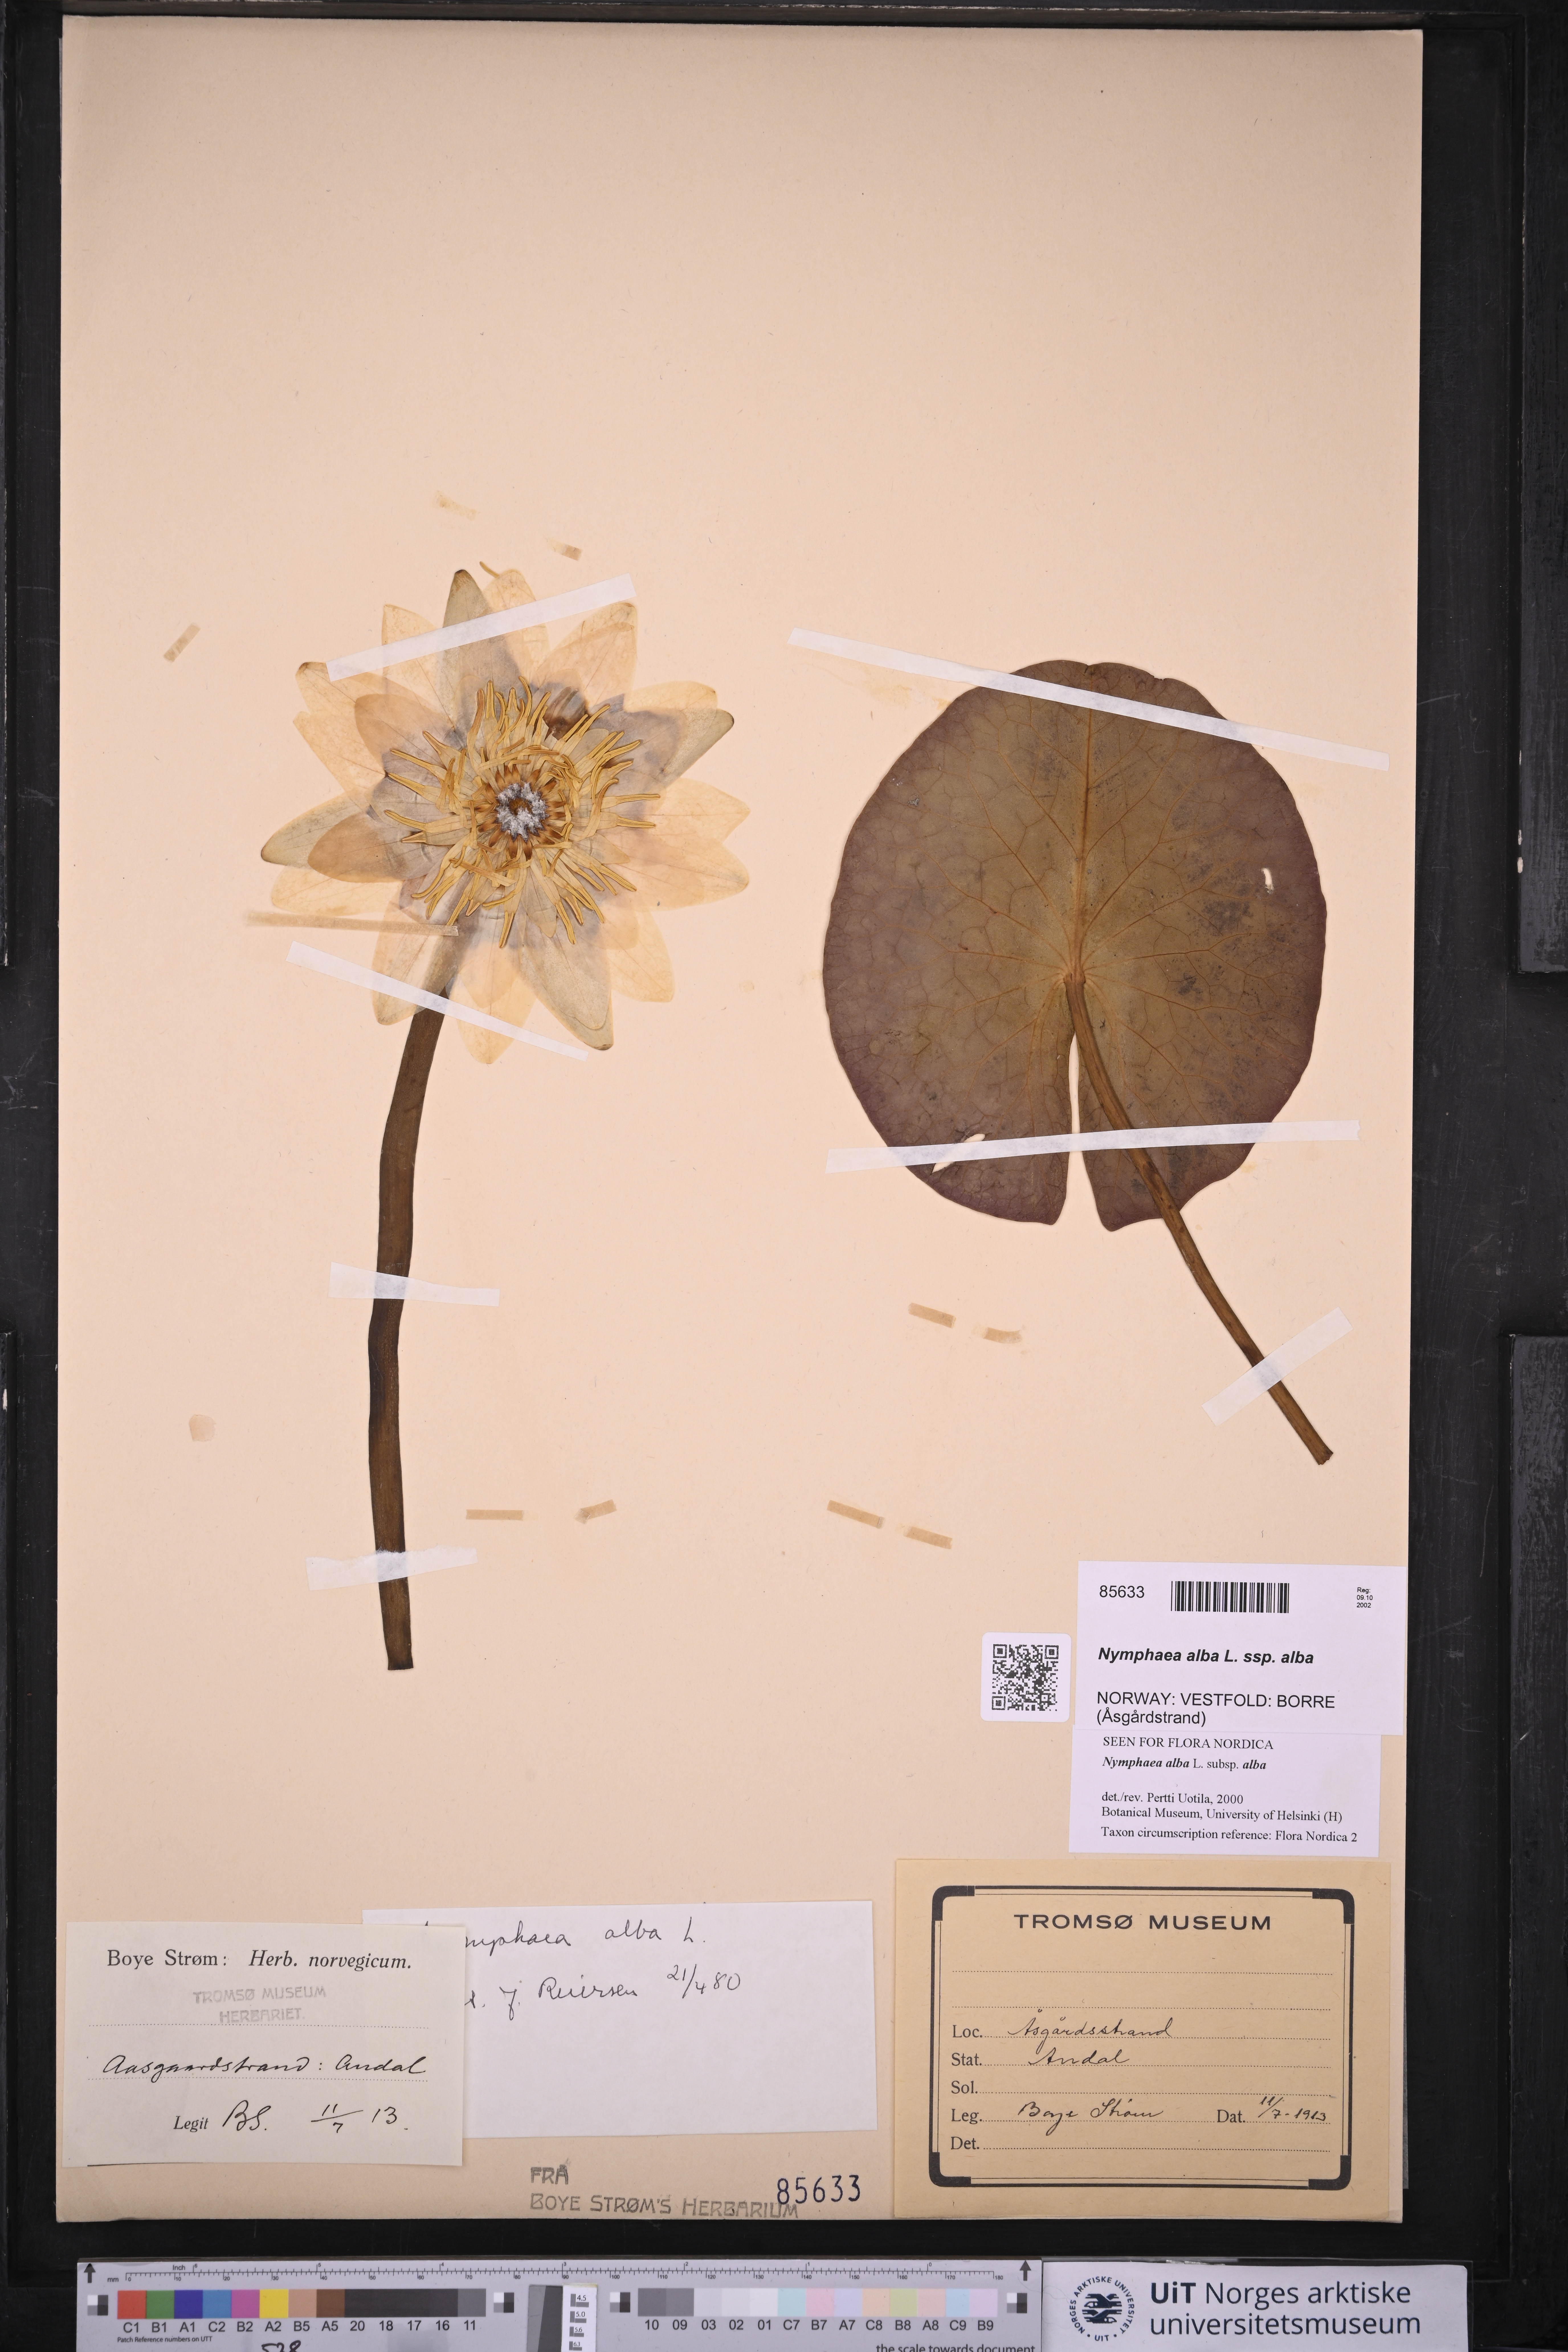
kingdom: Plantae
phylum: Tracheophyta
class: Magnoliopsida
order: Nymphaeales
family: Nymphaeaceae
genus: Nymphaea
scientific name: Nymphaea alba
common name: White water-lily
